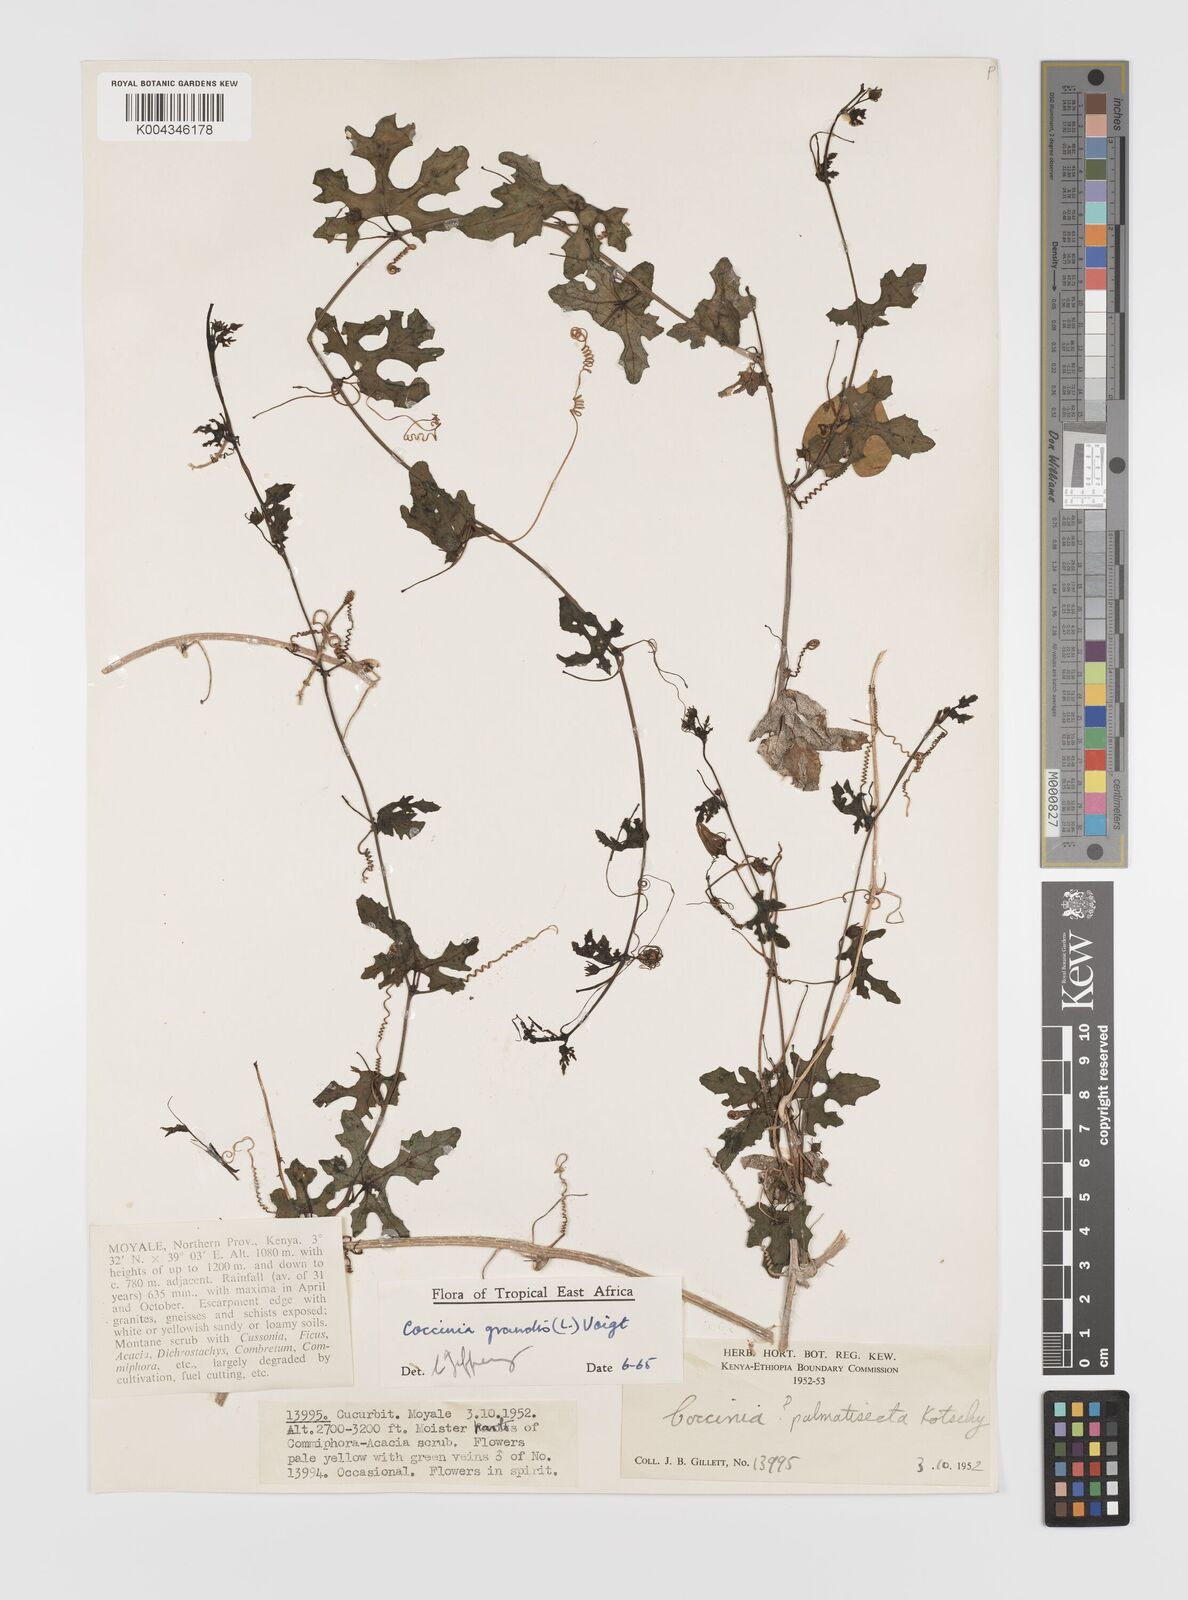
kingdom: Plantae
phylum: Tracheophyta
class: Magnoliopsida
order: Cucurbitales
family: Cucurbitaceae
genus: Coccinia
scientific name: Coccinia grandis
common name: Ivy gourd
